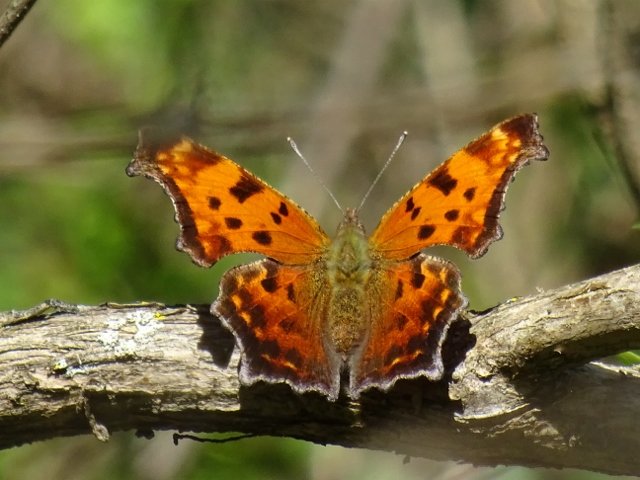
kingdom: Animalia
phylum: Arthropoda
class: Insecta
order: Lepidoptera
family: Nymphalidae
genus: Polygonia
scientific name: Polygonia comma
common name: Eastern Comma
